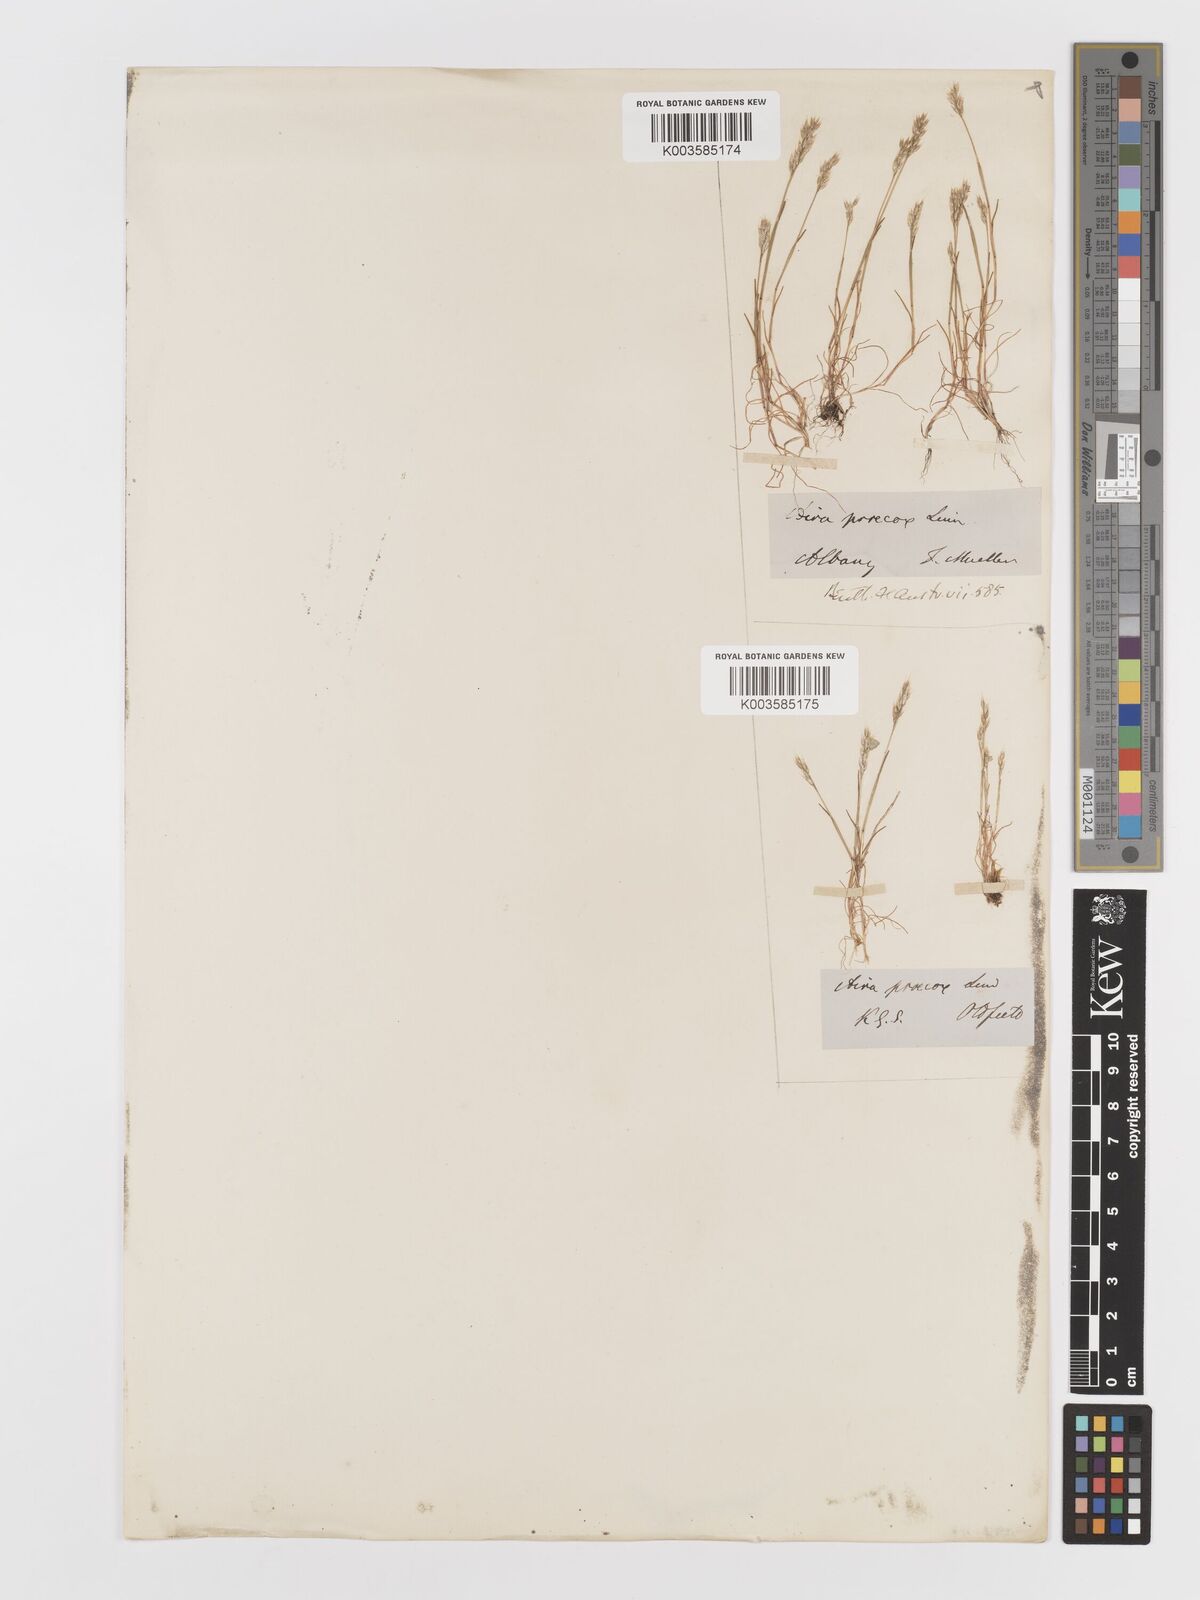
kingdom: Plantae
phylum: Tracheophyta
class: Liliopsida
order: Poales
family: Poaceae
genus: Aira
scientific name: Aira praecox
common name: Early hair-grass
